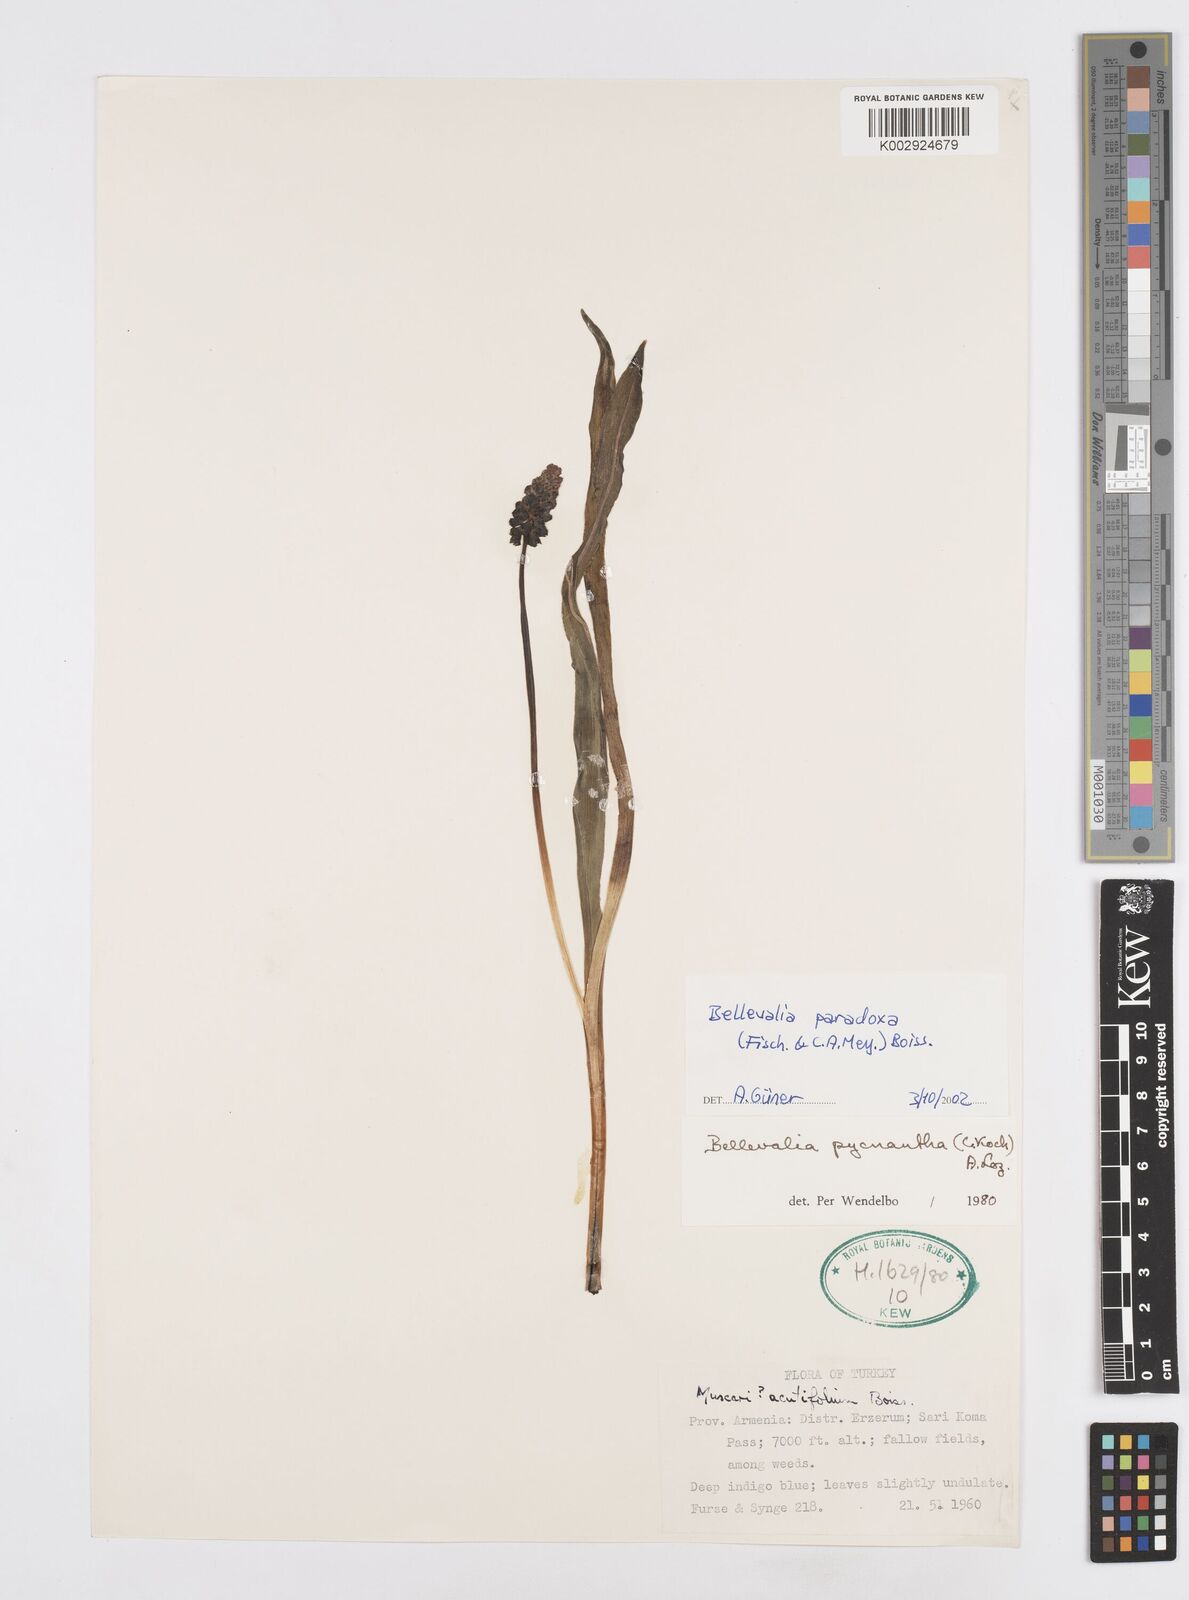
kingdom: Plantae
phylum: Tracheophyta
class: Liliopsida
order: Asparagales
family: Asparagaceae
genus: Bellevalia
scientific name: Bellevalia paradoxa
